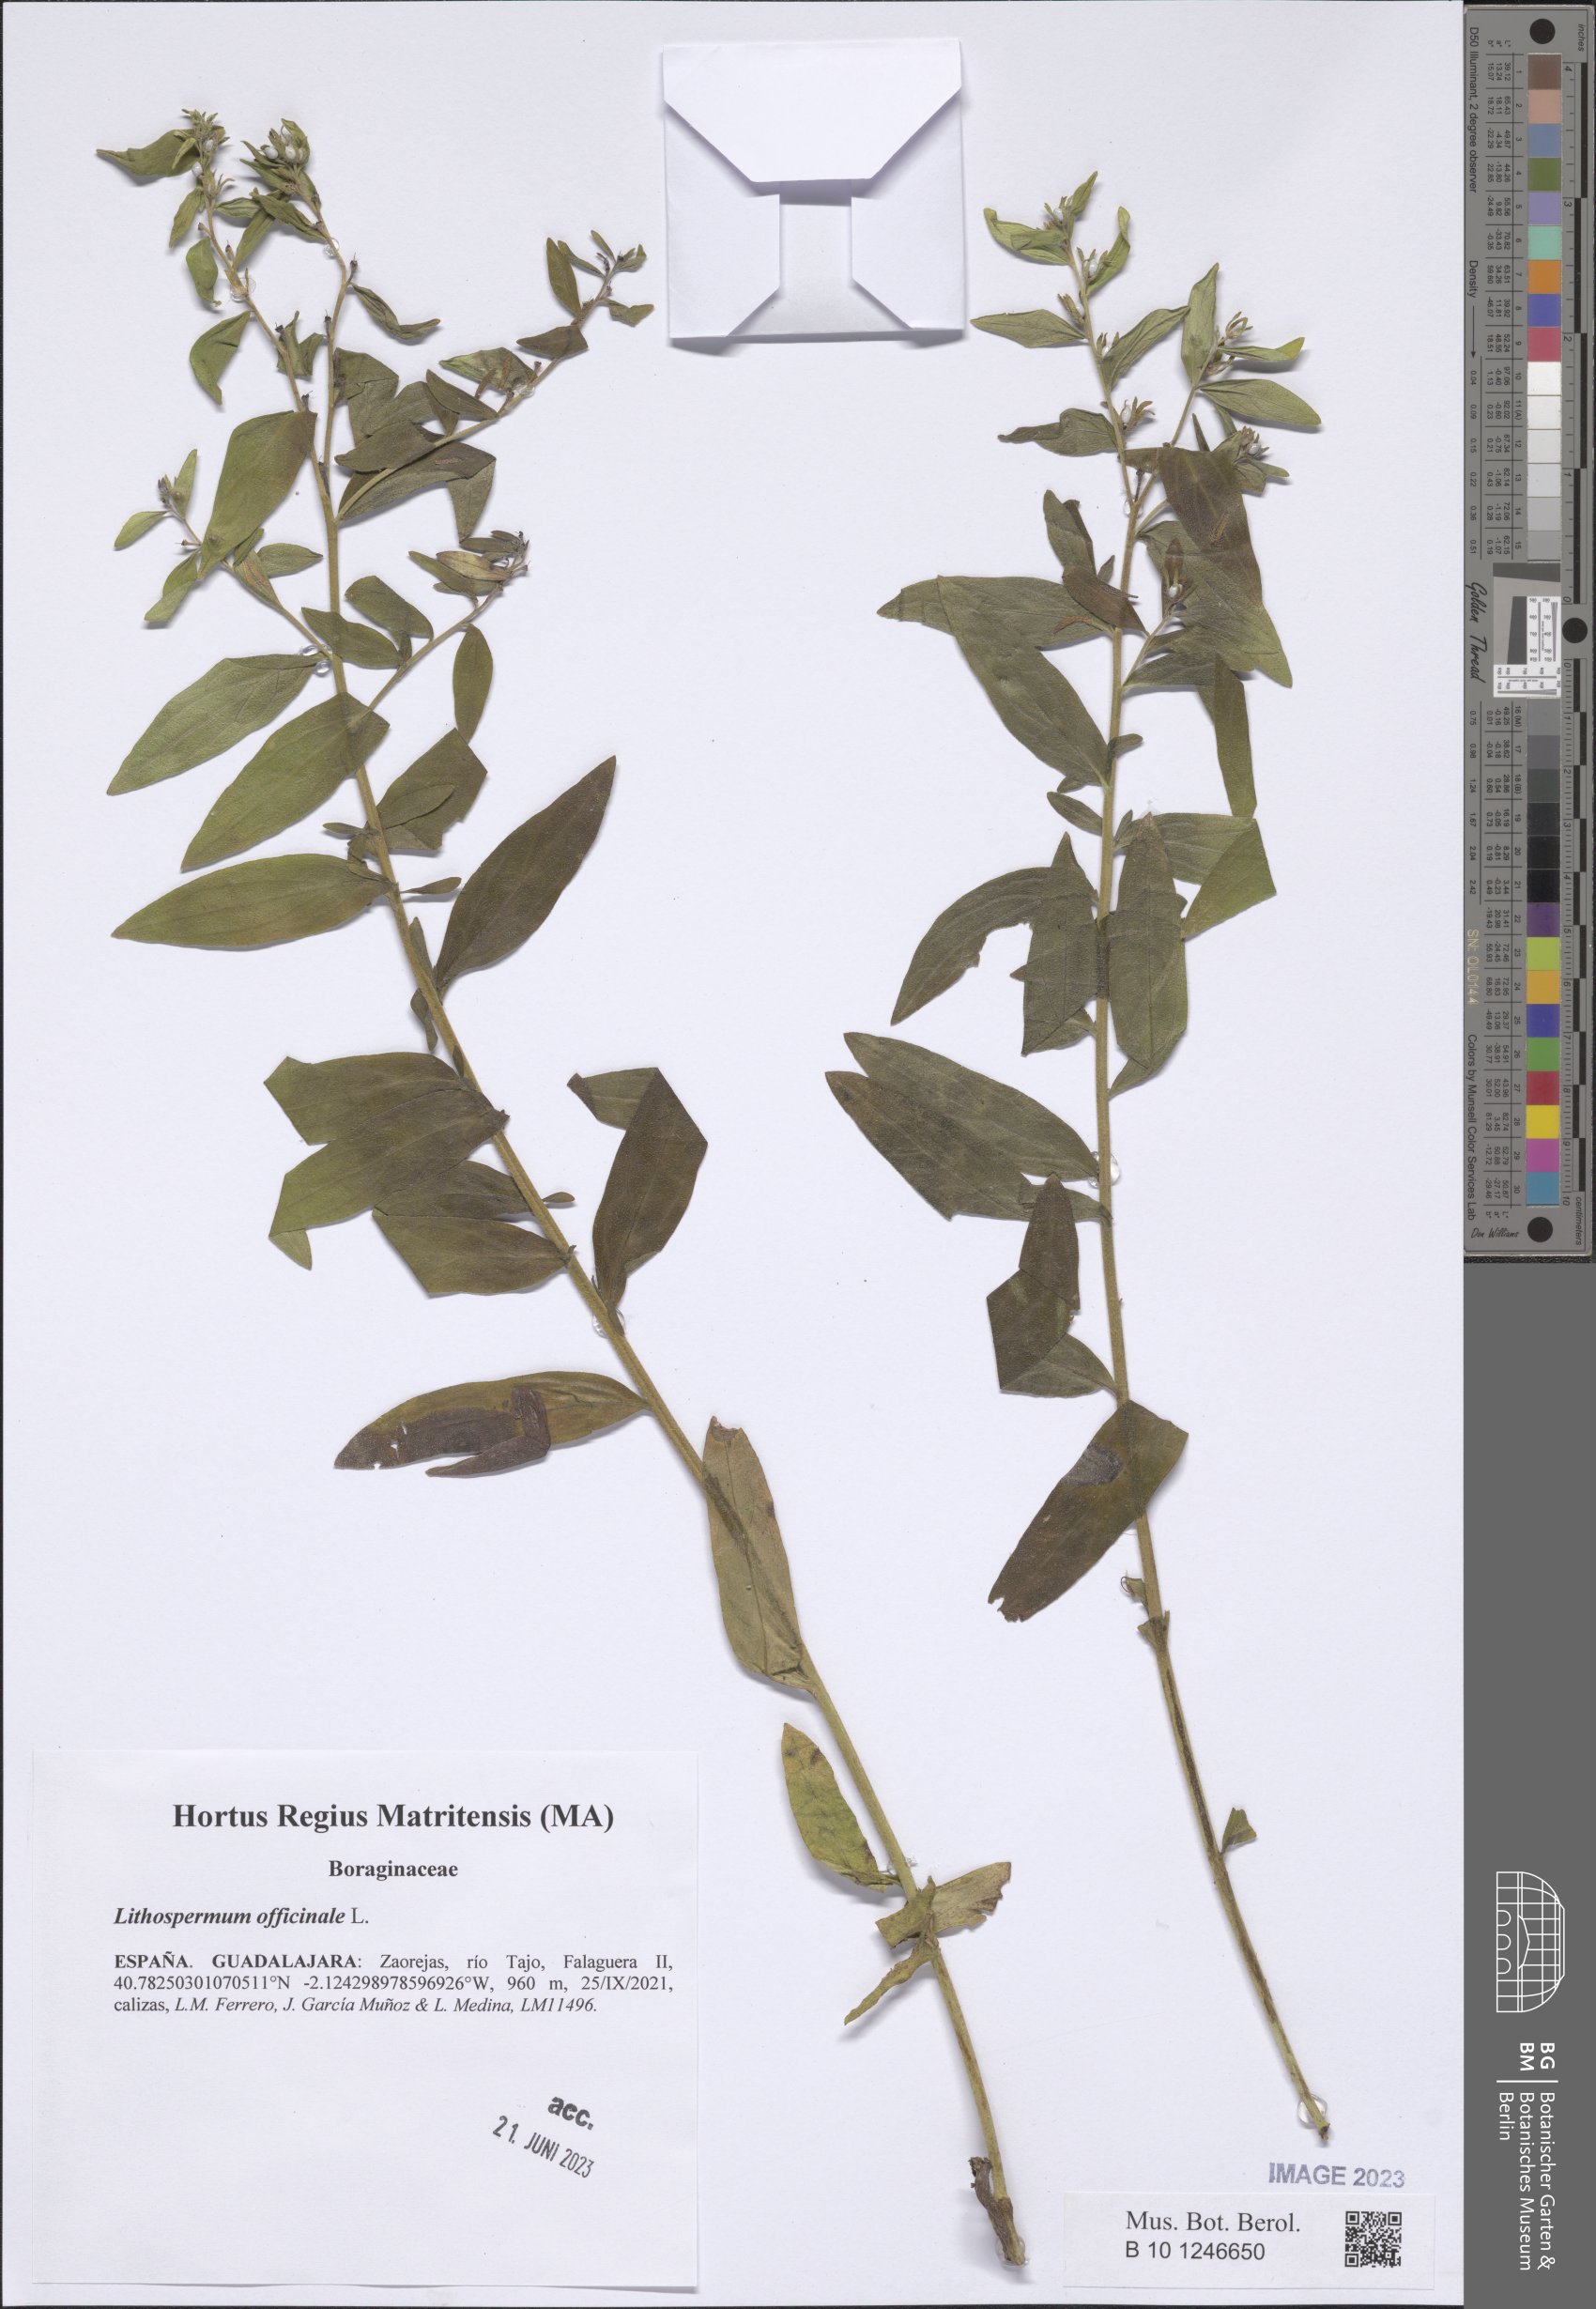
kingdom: Plantae
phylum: Tracheophyta
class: Magnoliopsida
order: Boraginales
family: Boraginaceae
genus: Lithospermum
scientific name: Lithospermum officinale
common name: Common gromwell
